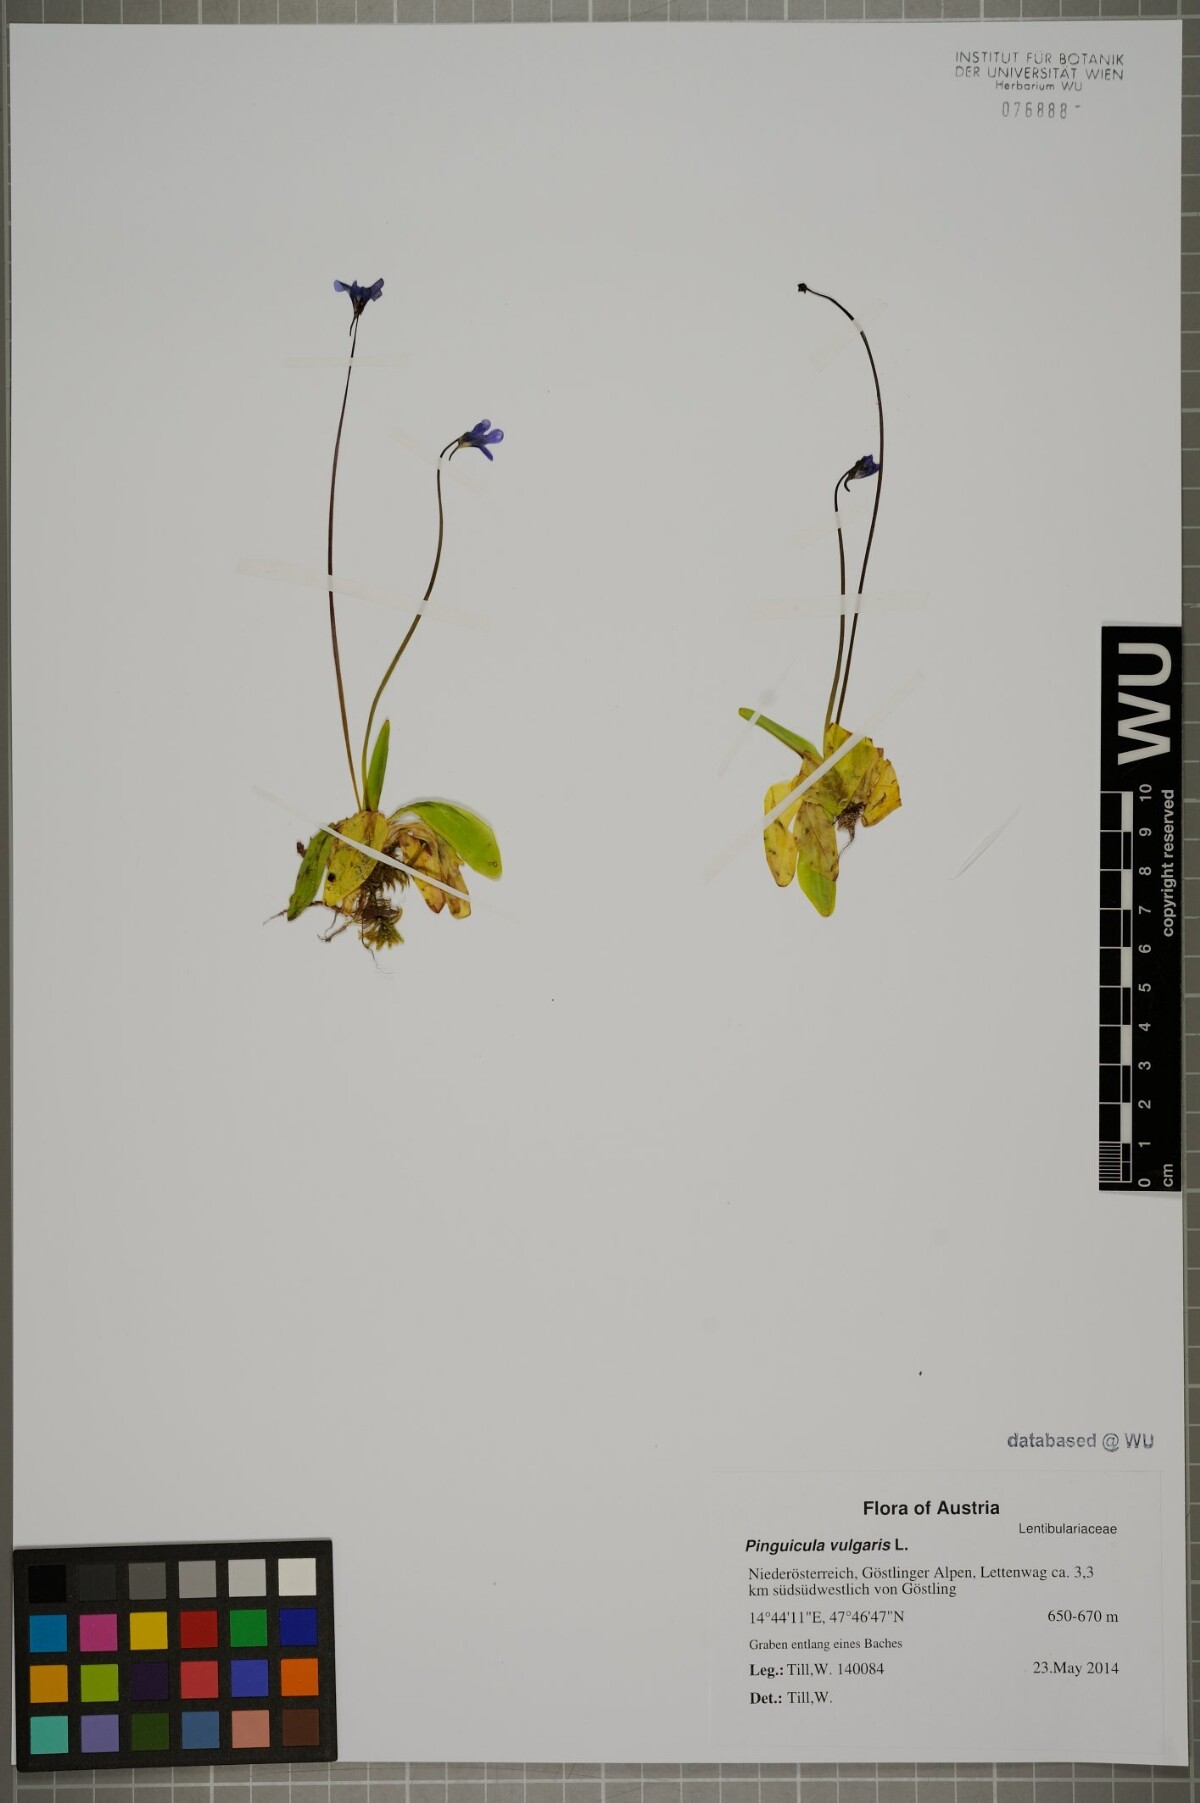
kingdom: Plantae
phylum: Tracheophyta
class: Magnoliopsida
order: Lamiales
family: Lentibulariaceae
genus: Pinguicula
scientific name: Pinguicula vulgaris
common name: Common butterwort
